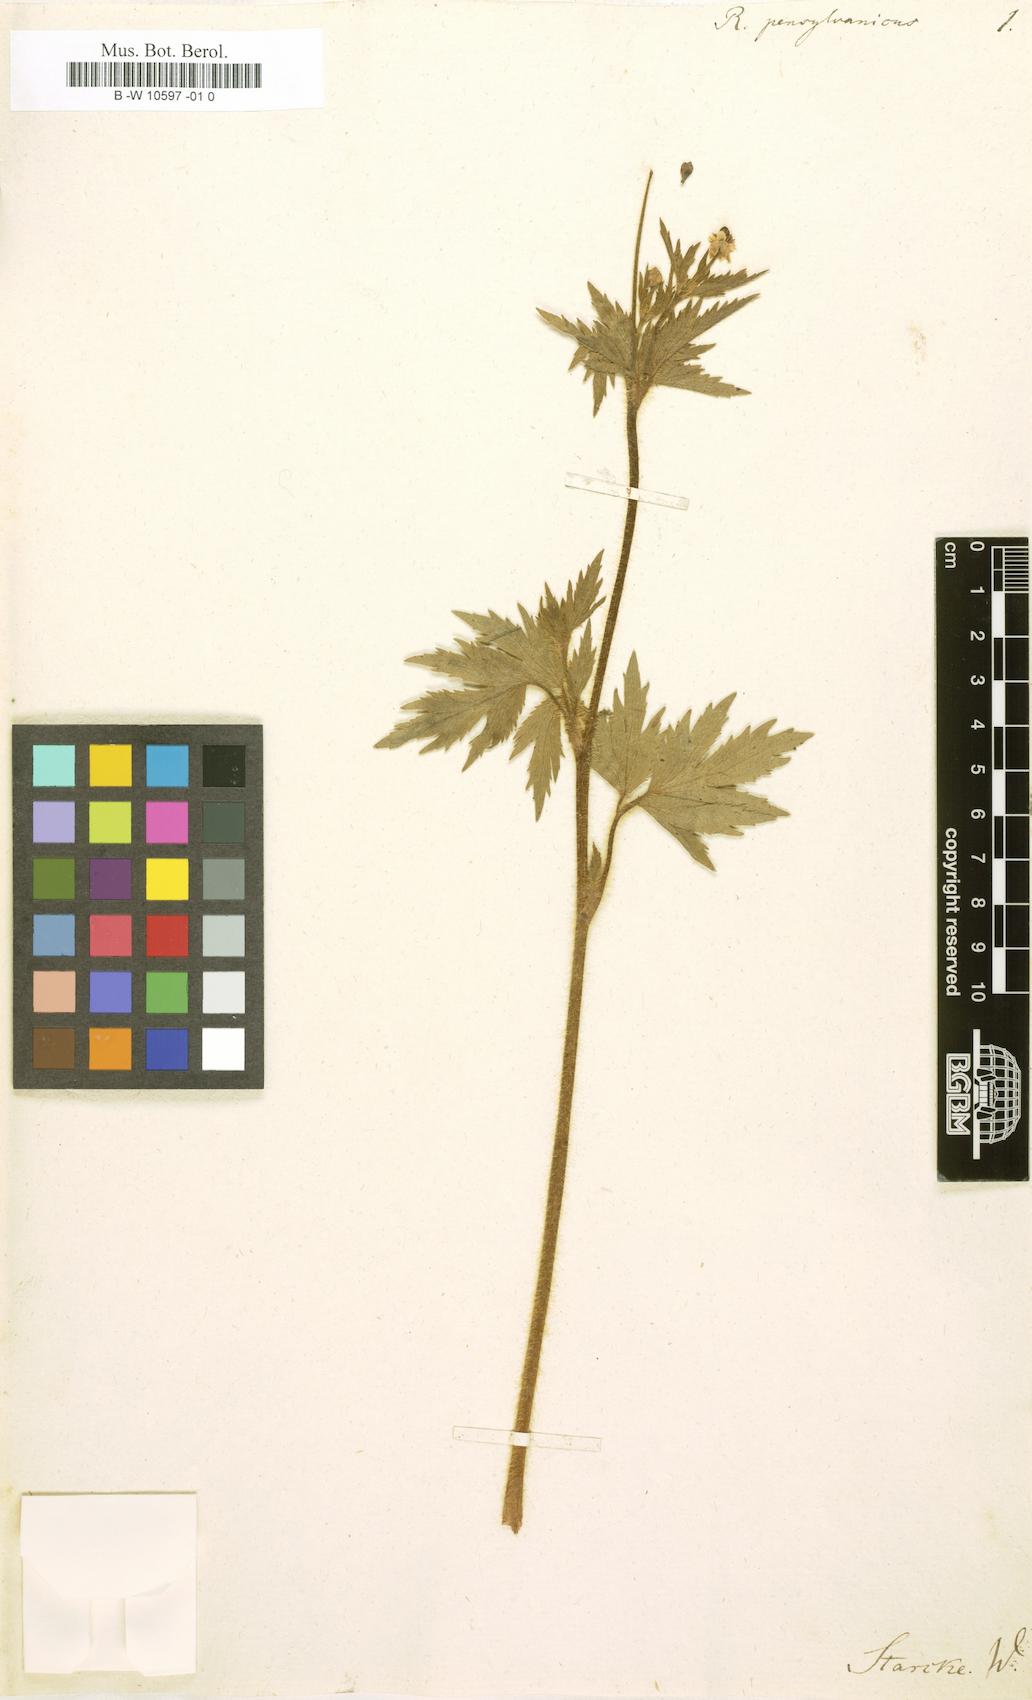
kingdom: Plantae
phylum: Tracheophyta
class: Magnoliopsida
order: Ranunculales
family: Ranunculaceae
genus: Ranunculus
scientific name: Ranunculus pensylvanicus
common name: Bristly buttercup
